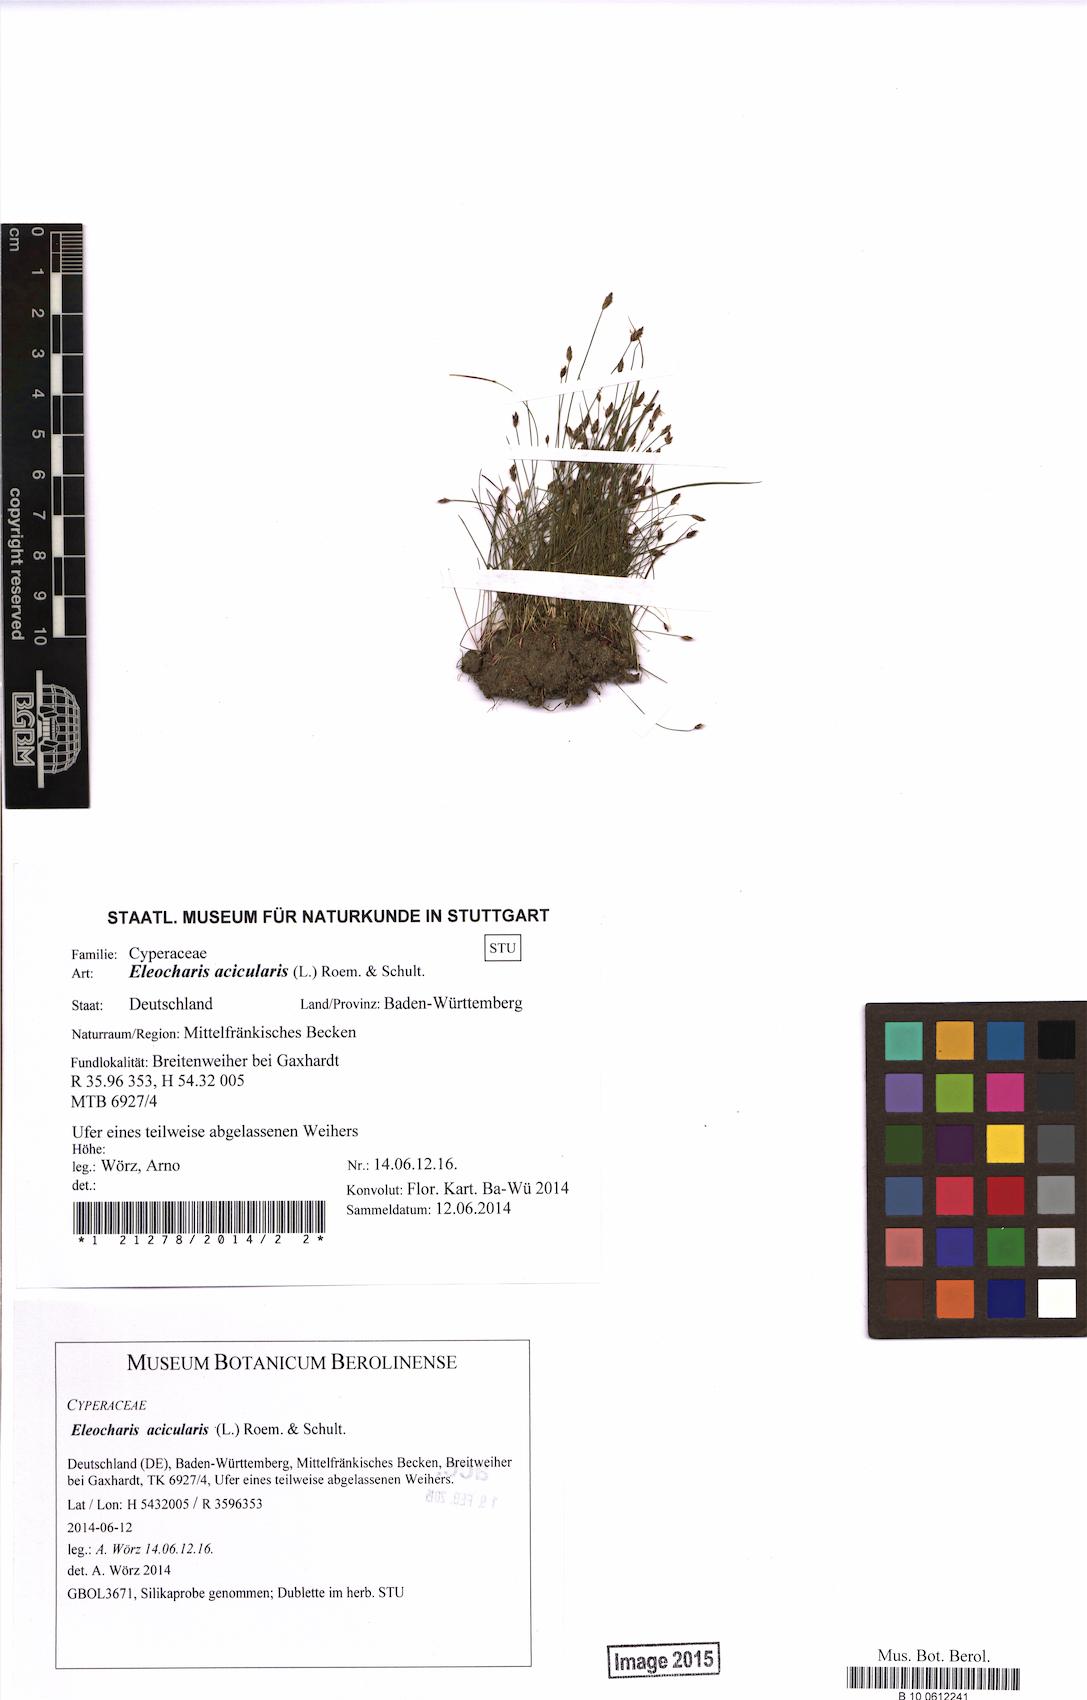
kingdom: Plantae
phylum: Tracheophyta
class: Liliopsida
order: Poales
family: Cyperaceae
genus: Eleocharis
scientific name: Eleocharis acicularis
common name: Needle spike-rush
